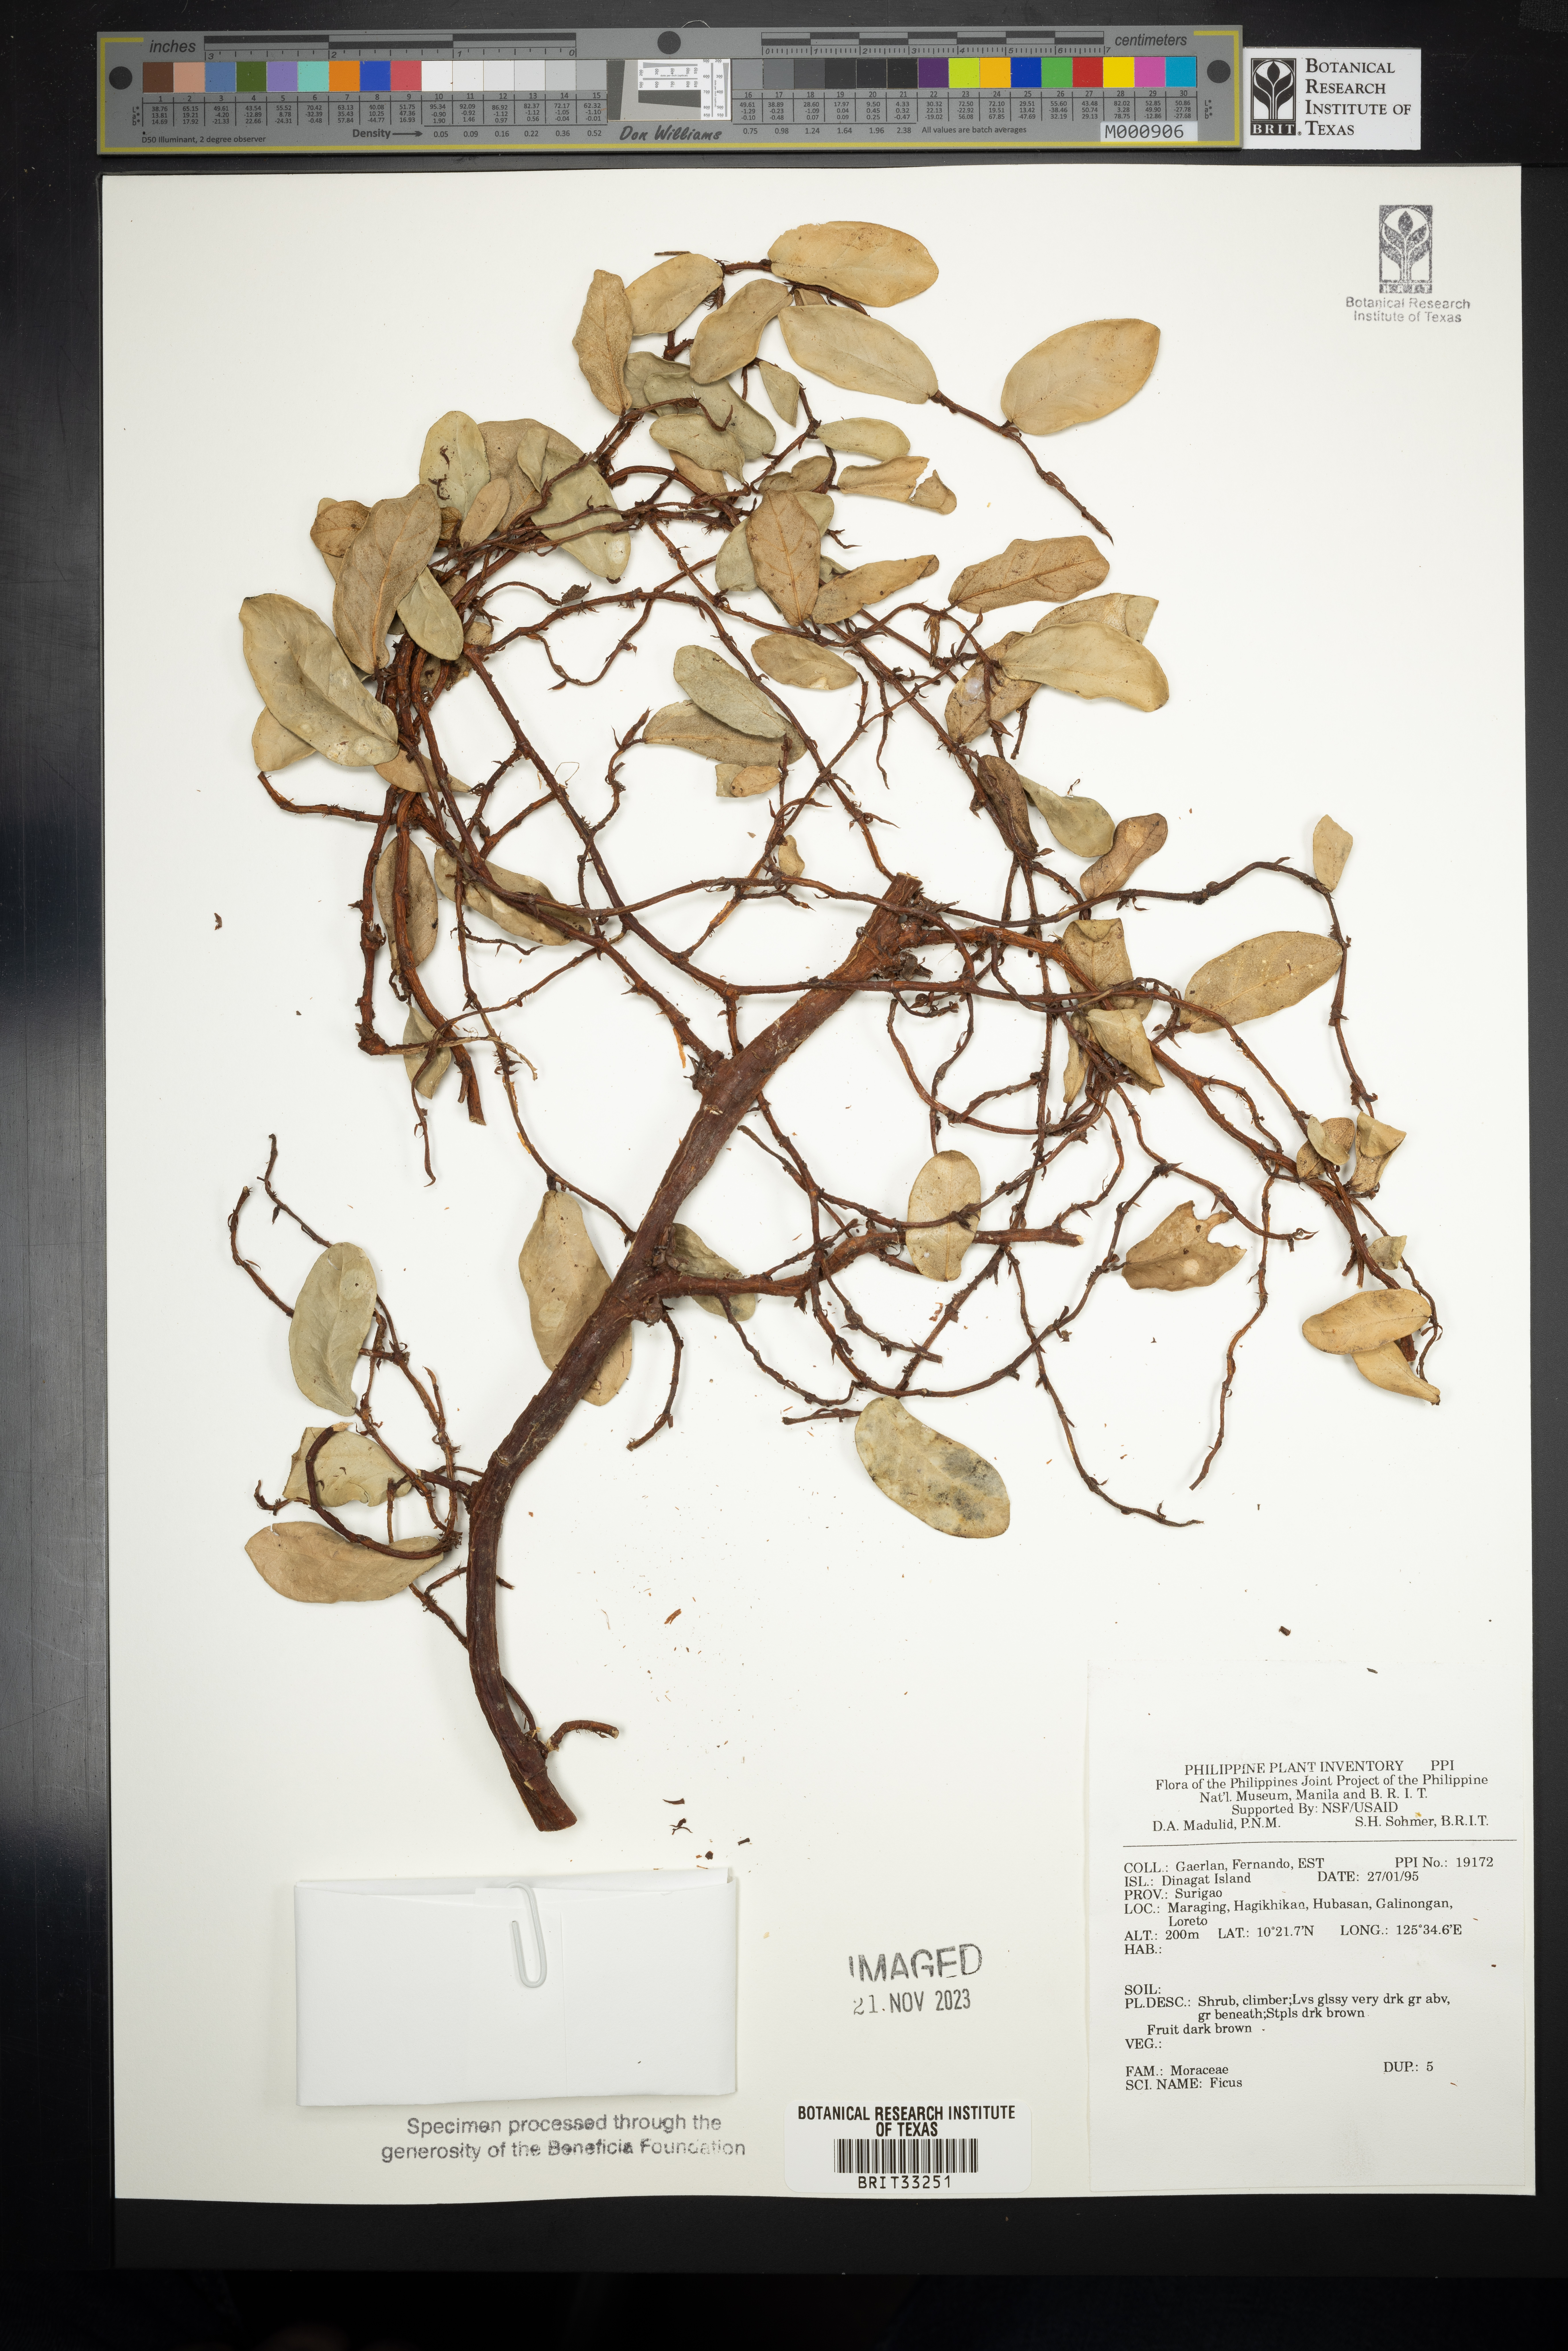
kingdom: Plantae
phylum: Tracheophyta
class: Magnoliopsida
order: Rosales
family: Moraceae
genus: Ficus
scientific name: Ficus
